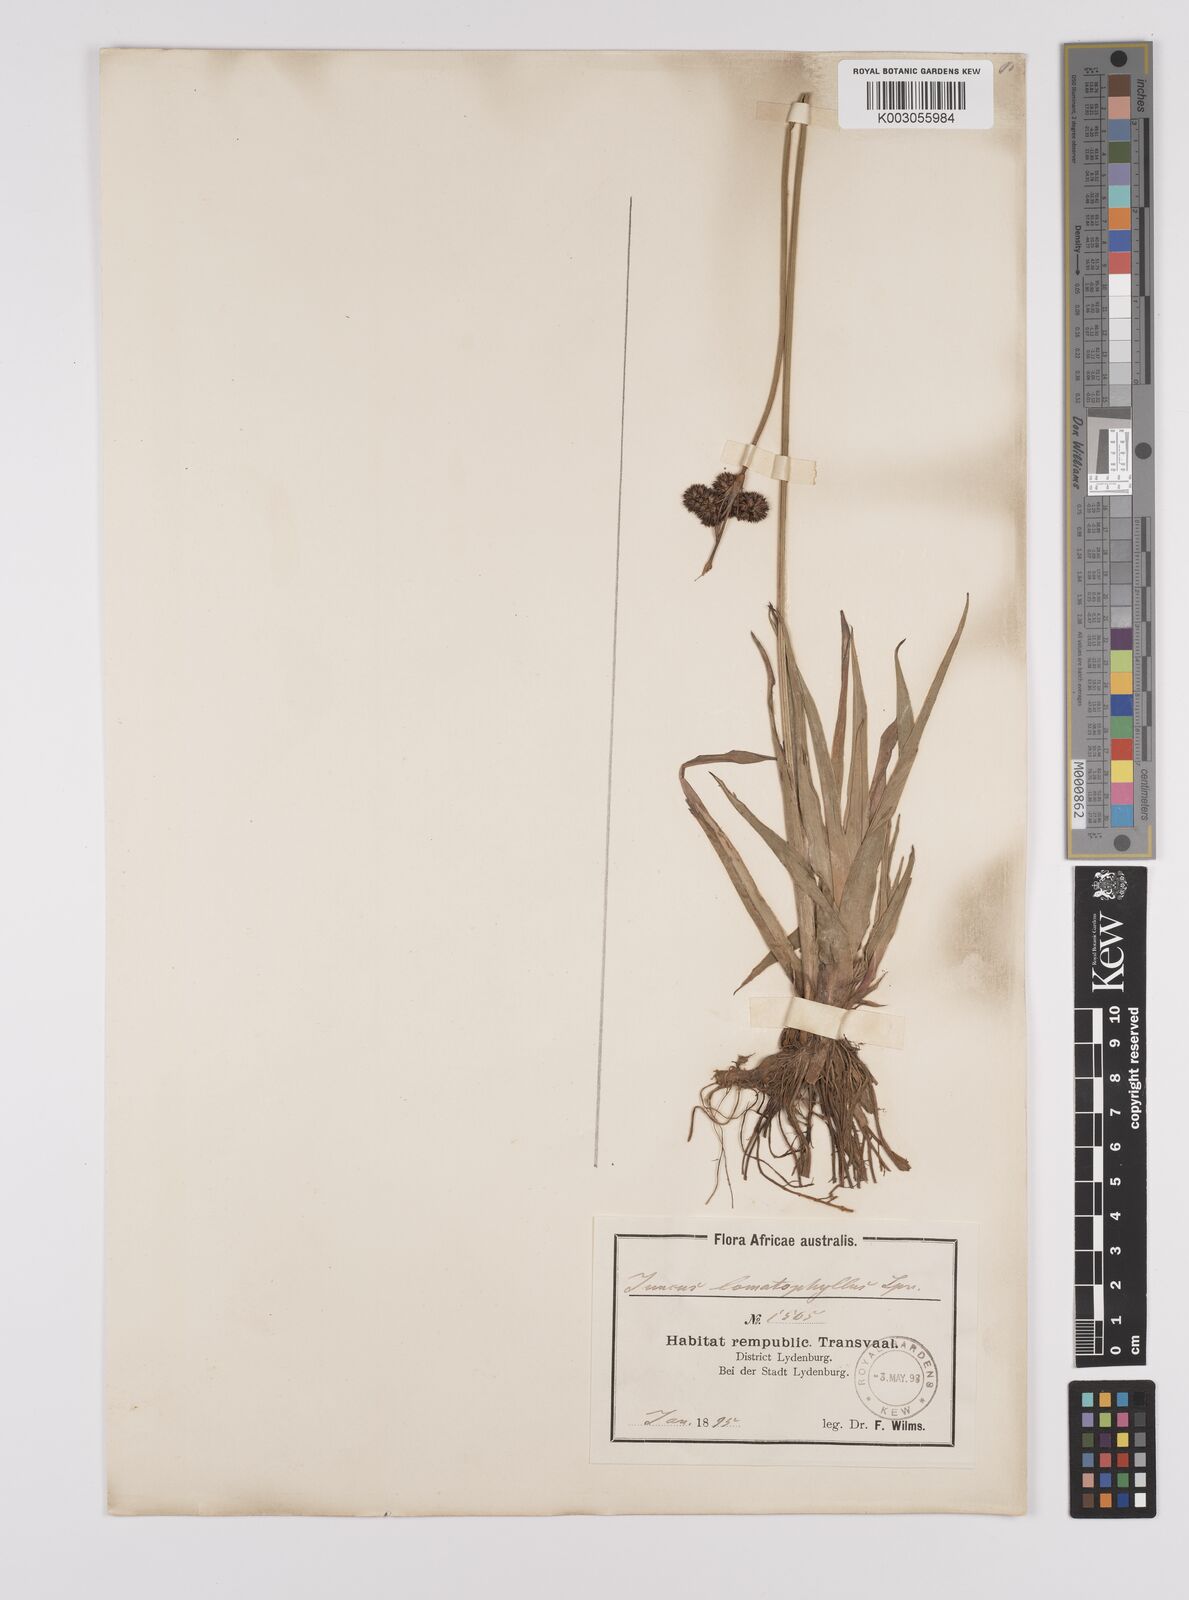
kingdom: Plantae
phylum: Tracheophyta
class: Liliopsida
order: Poales
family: Juncaceae
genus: Juncus
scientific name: Juncus lomatophyllus
